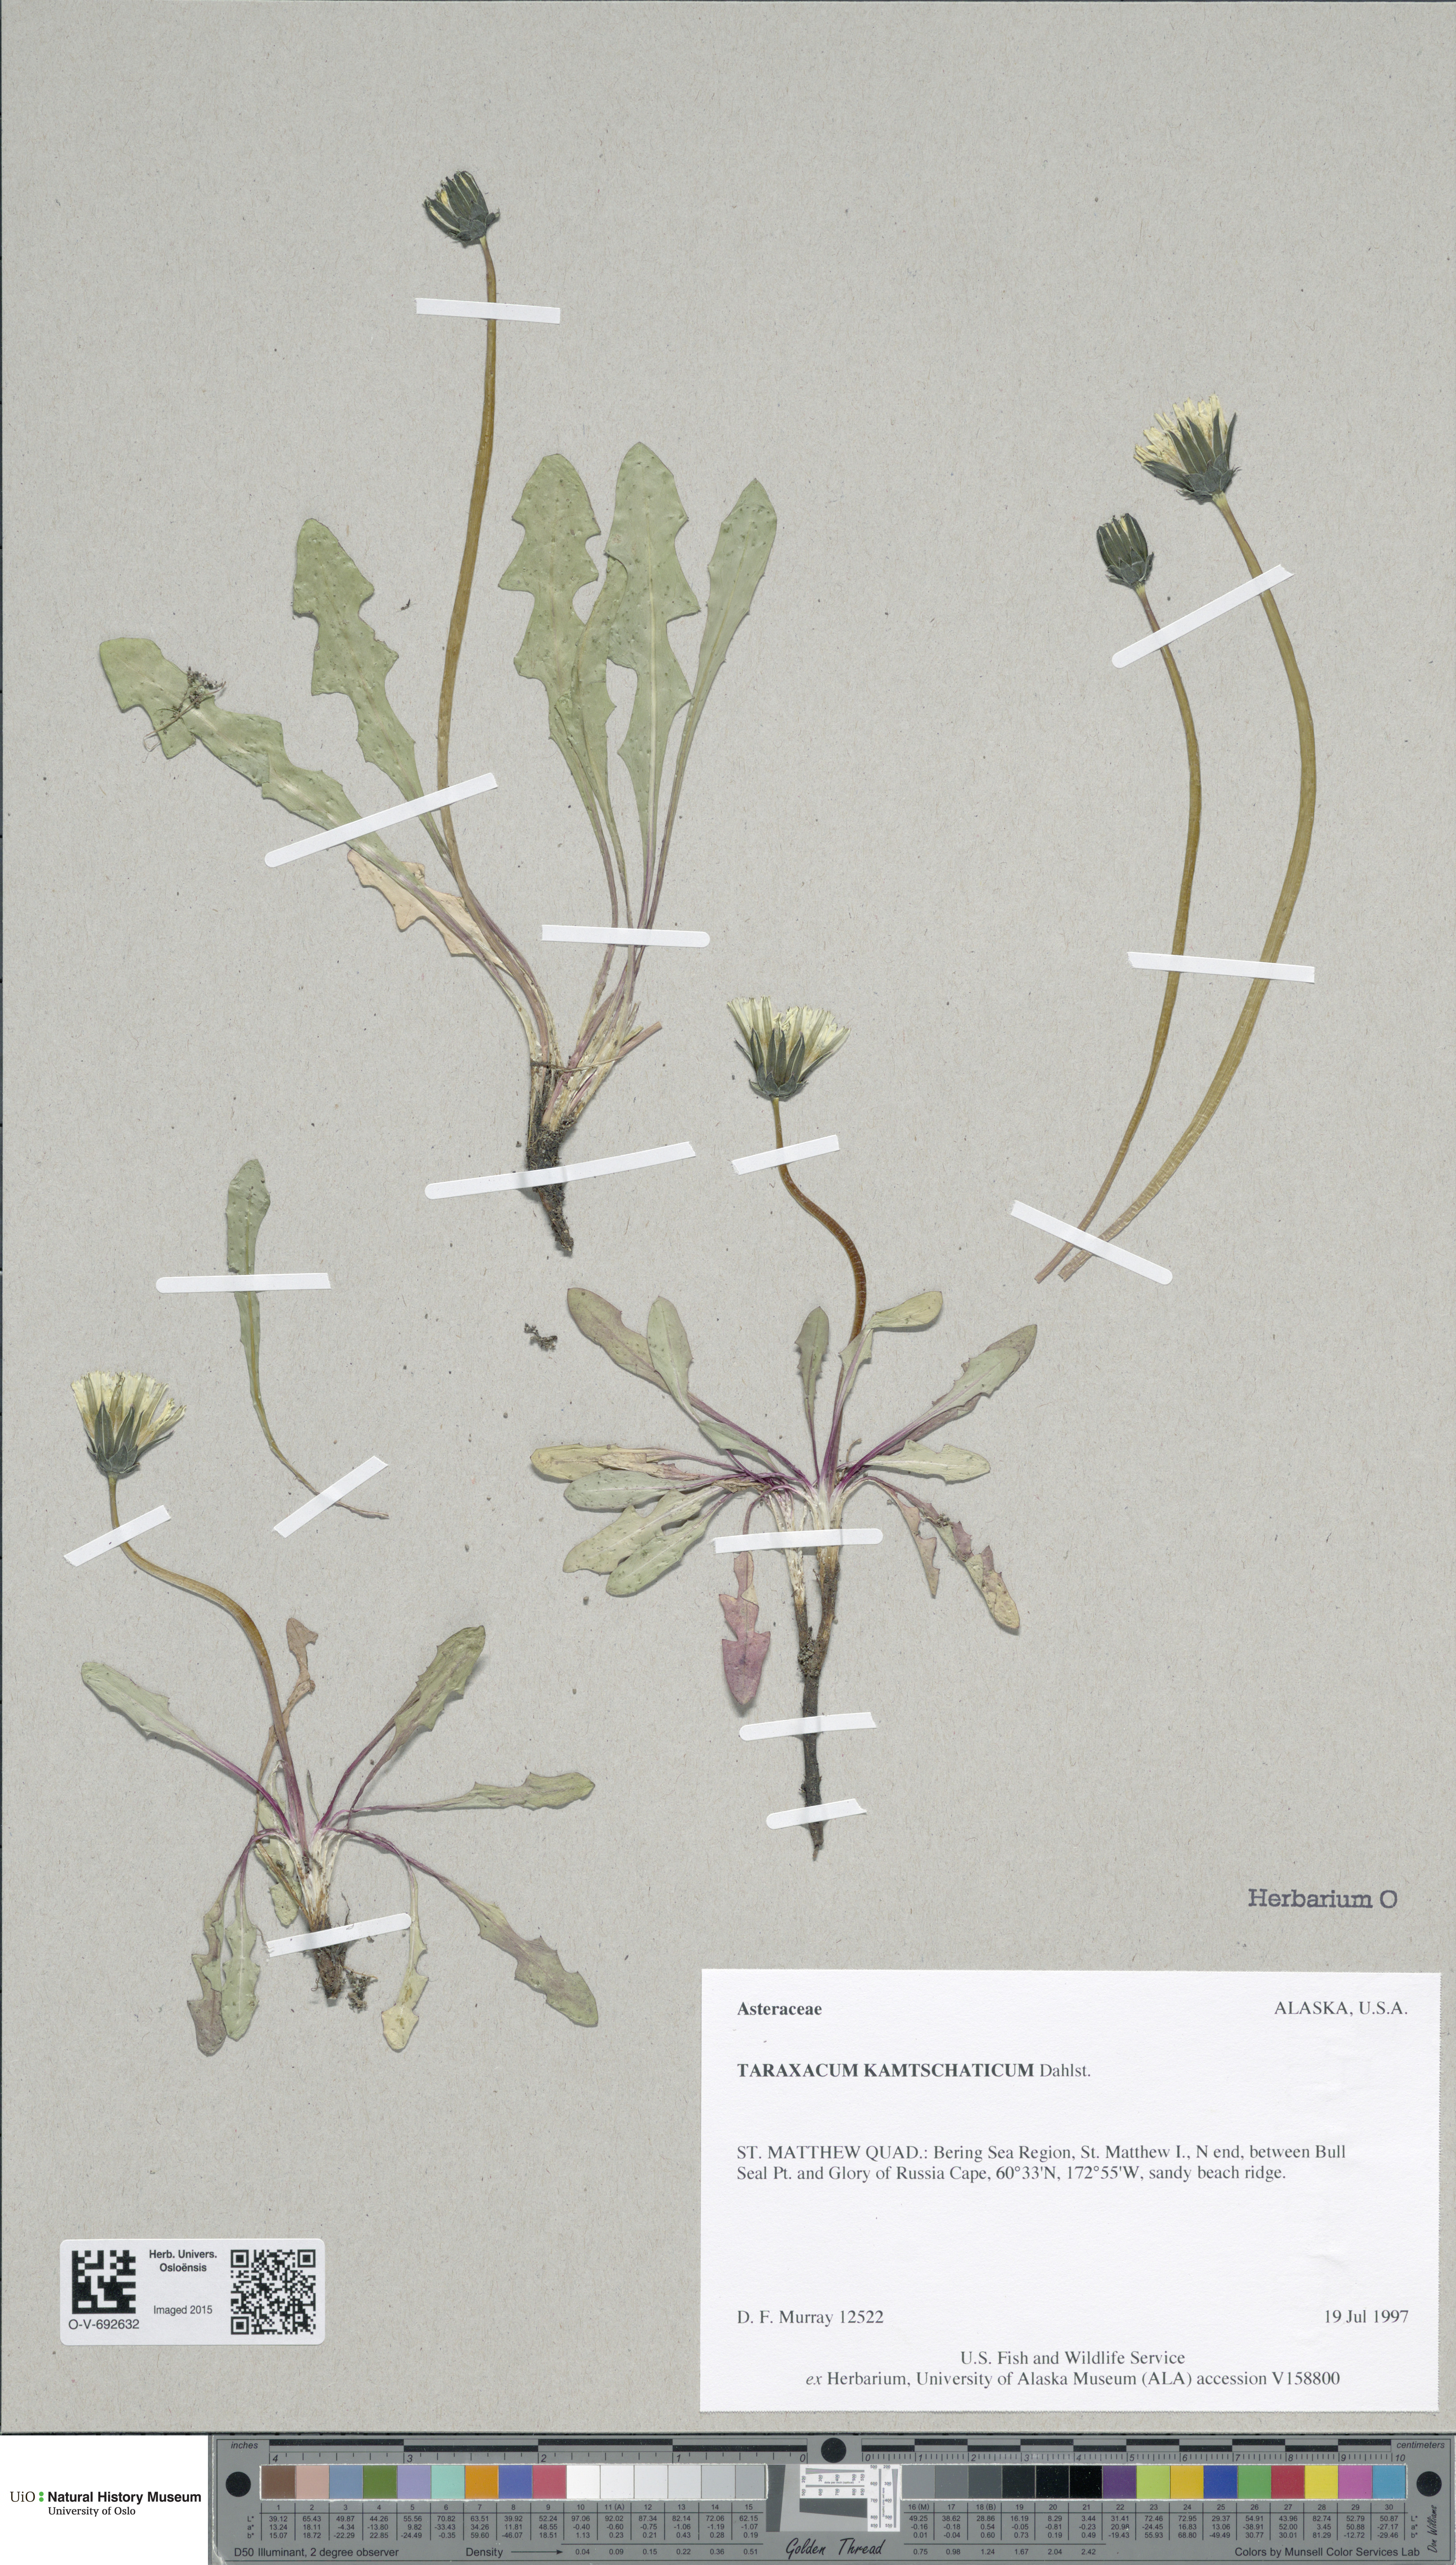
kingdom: Plantae
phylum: Tracheophyta
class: Magnoliopsida
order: Asterales
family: Asteraceae
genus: Taraxacum
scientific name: Taraxacum alaskanum
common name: Alaska dandelion
